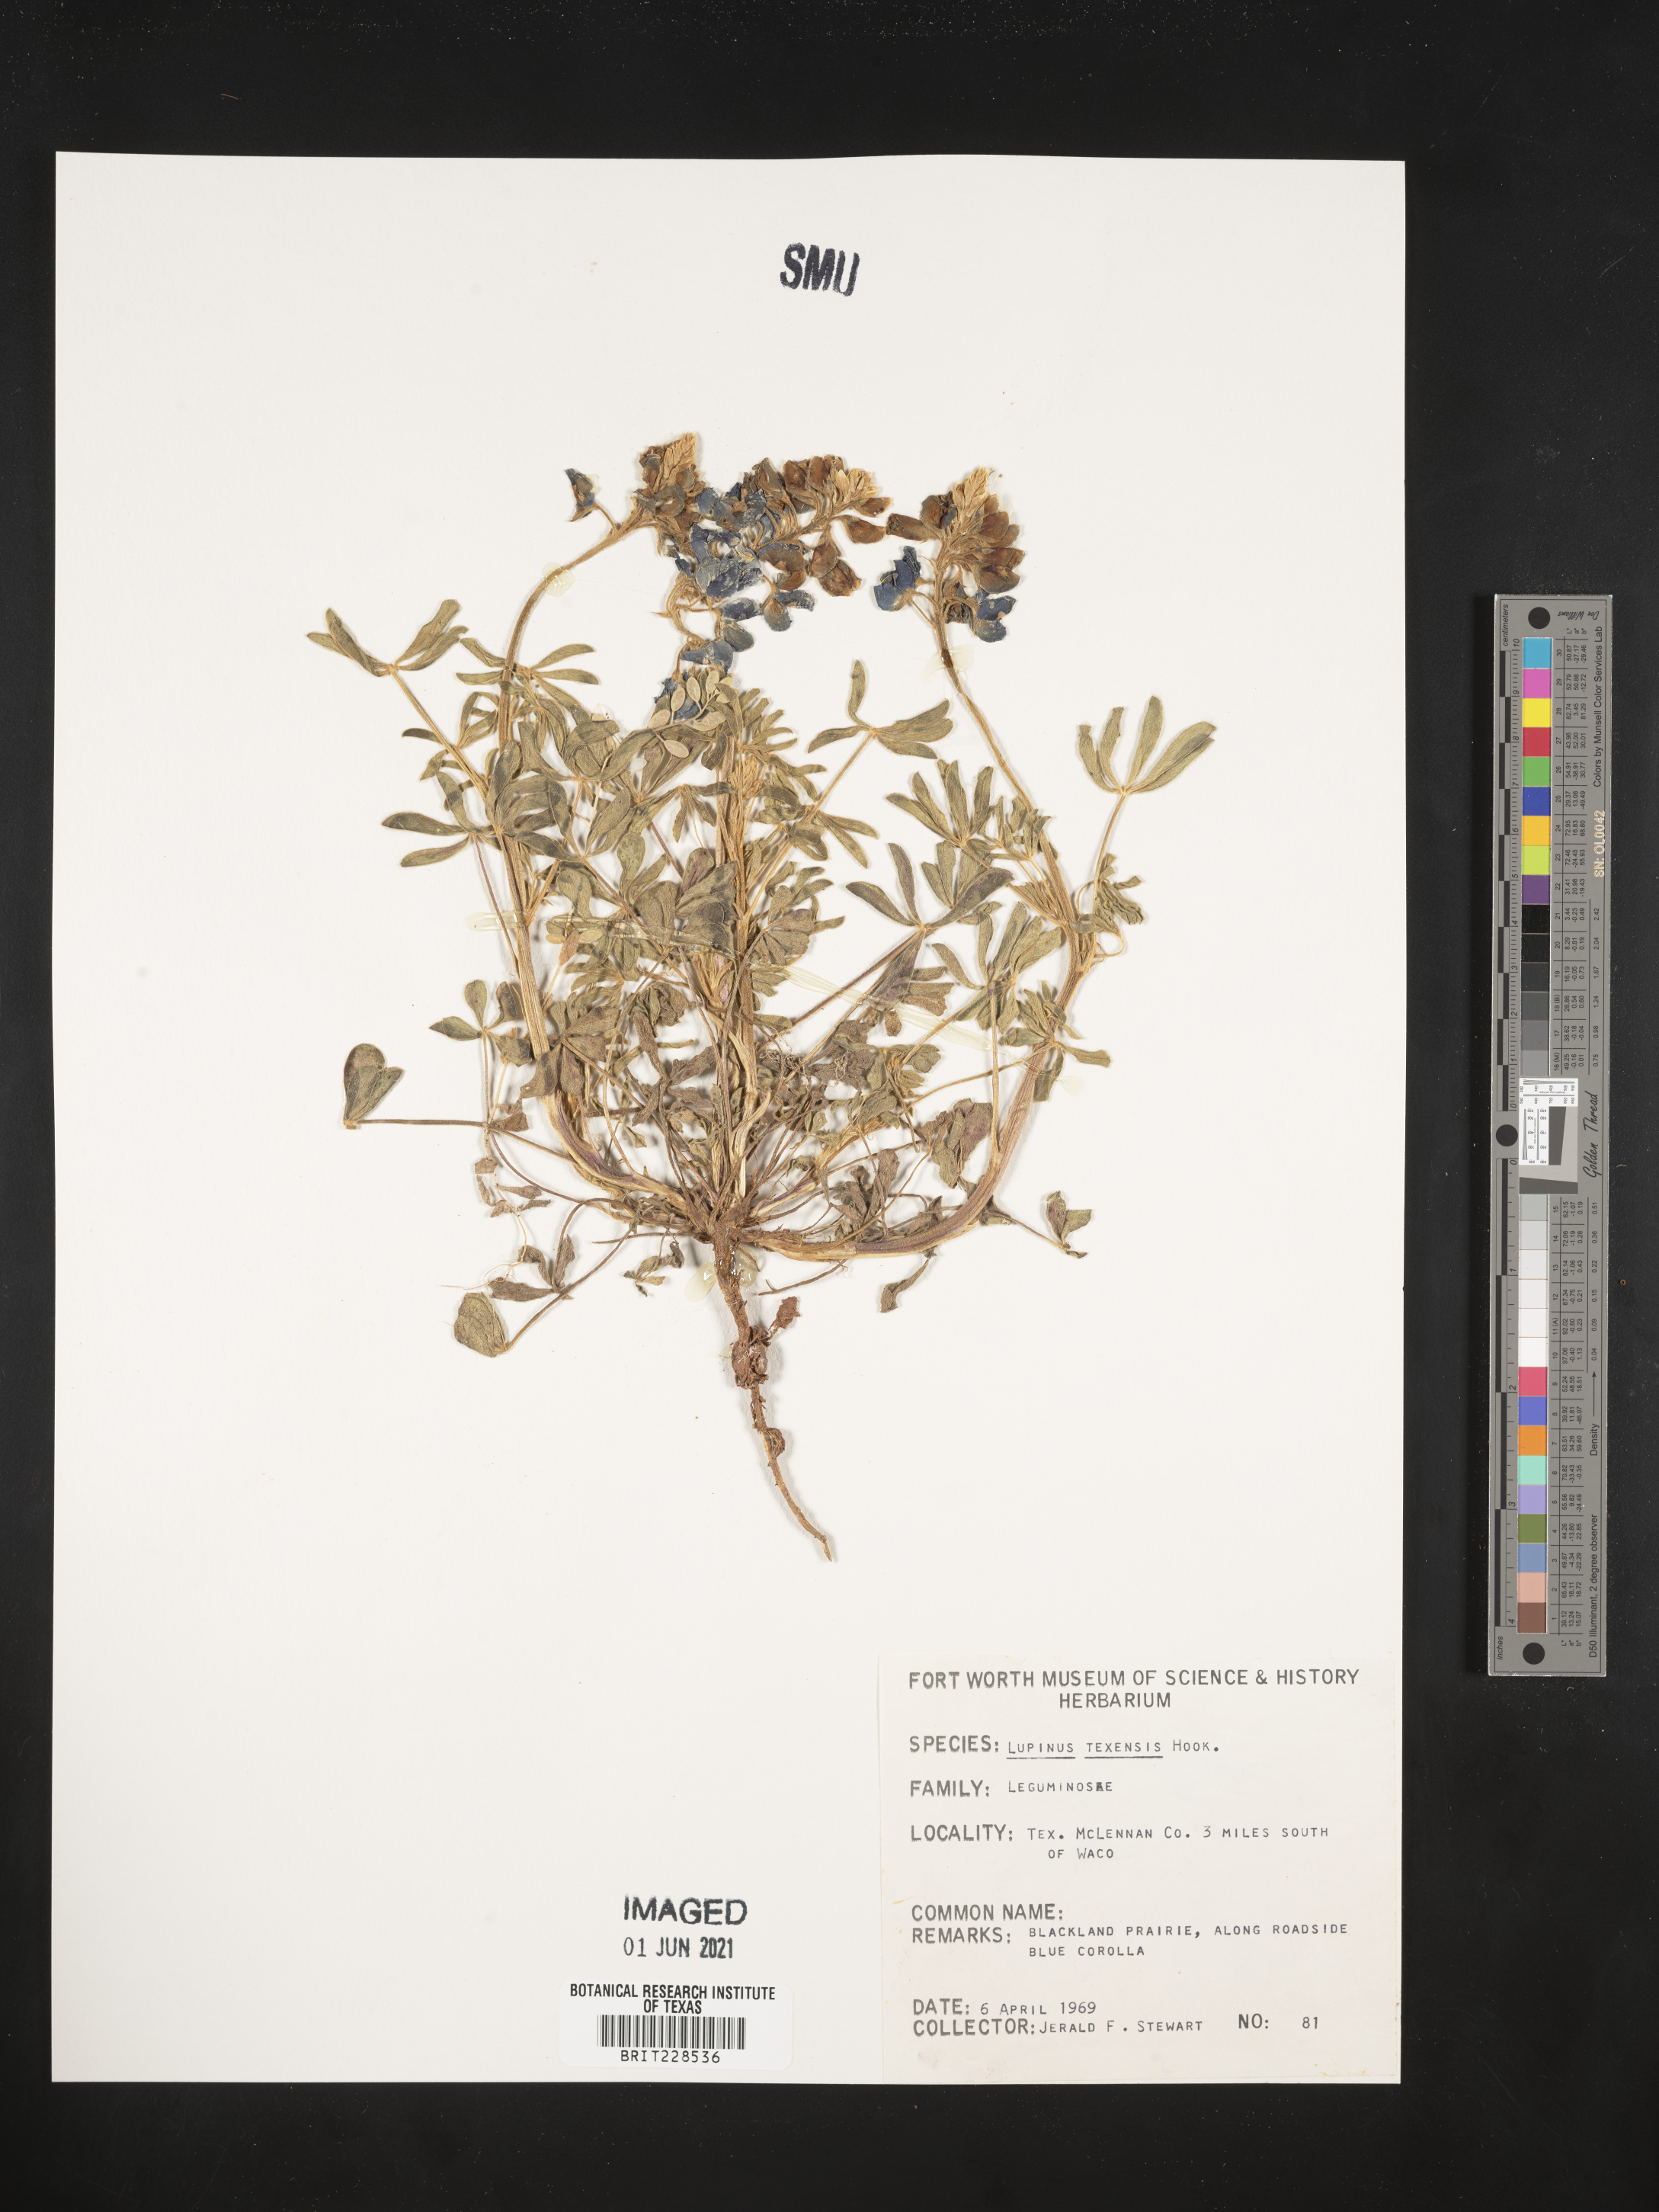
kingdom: Plantae
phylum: Tracheophyta
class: Magnoliopsida
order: Fabales
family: Fabaceae
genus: Lupinus
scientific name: Lupinus texensis
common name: Texas bluebonnet
